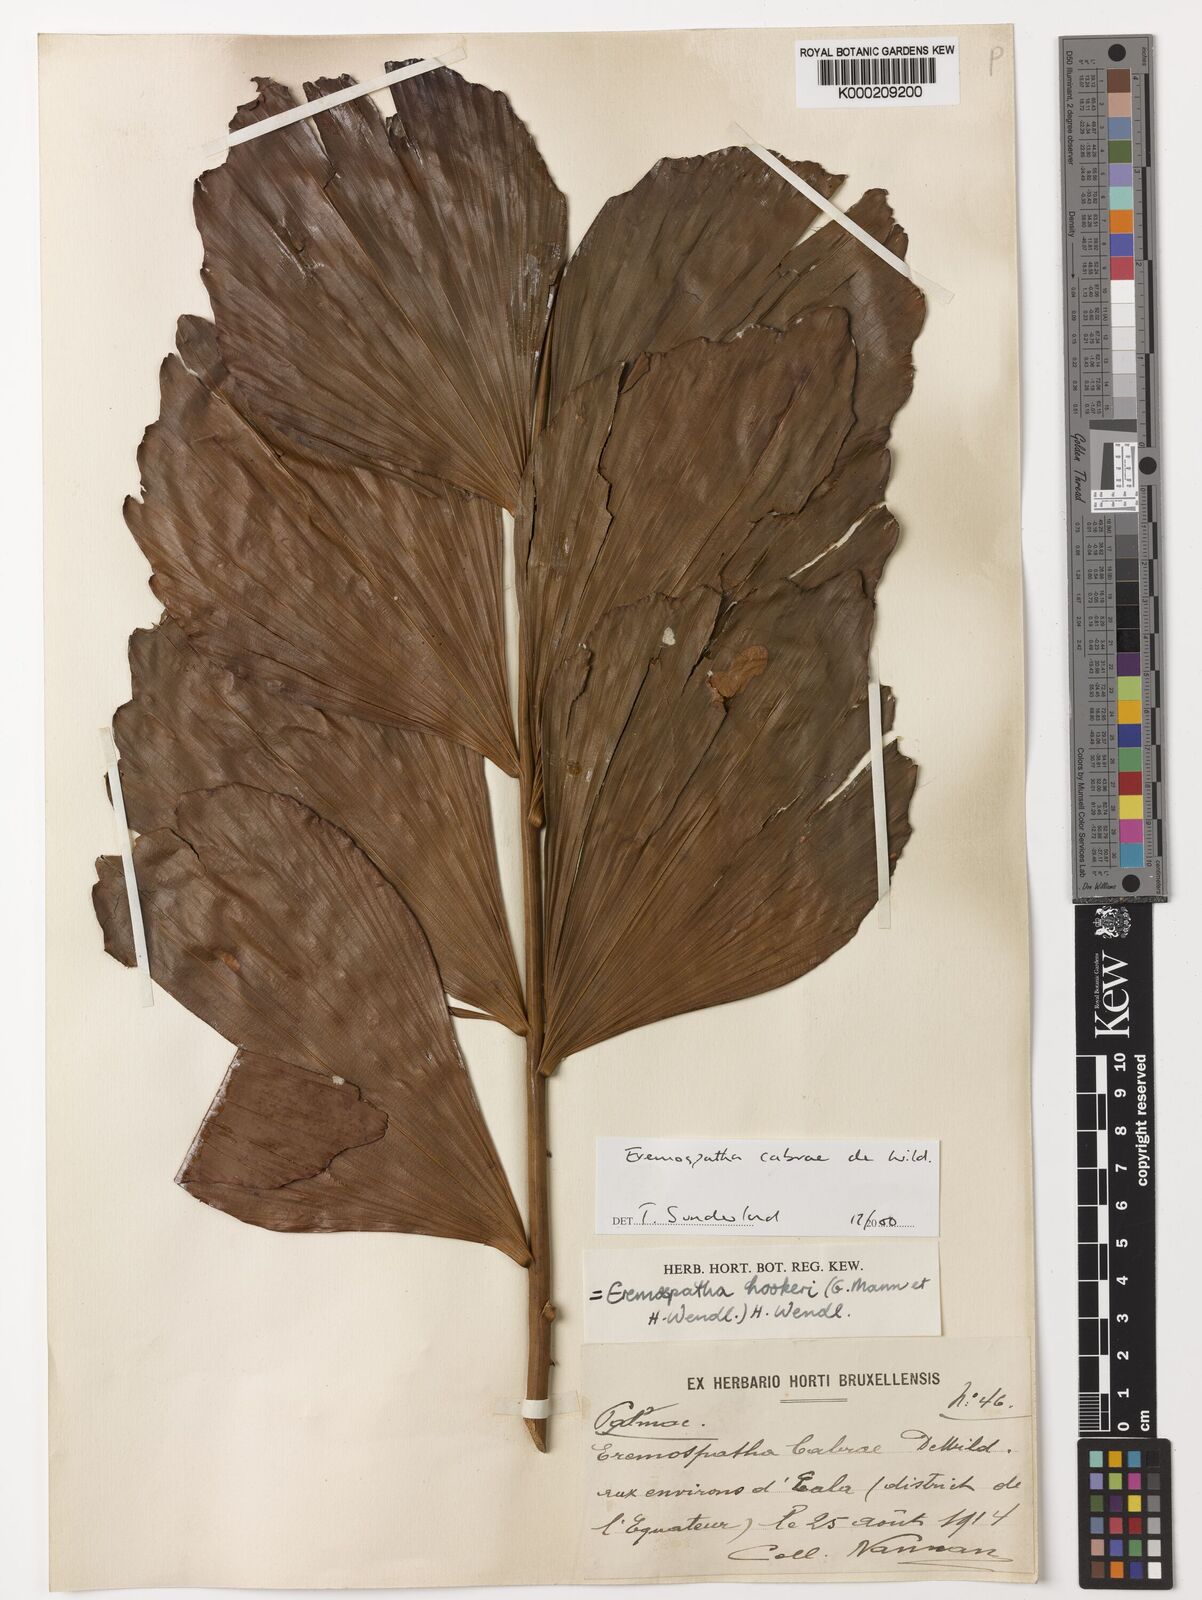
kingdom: Plantae
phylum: Tracheophyta
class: Liliopsida
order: Arecales
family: Arecaceae
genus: Eremospatha
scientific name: Eremospatha cabrae
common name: Rattan
